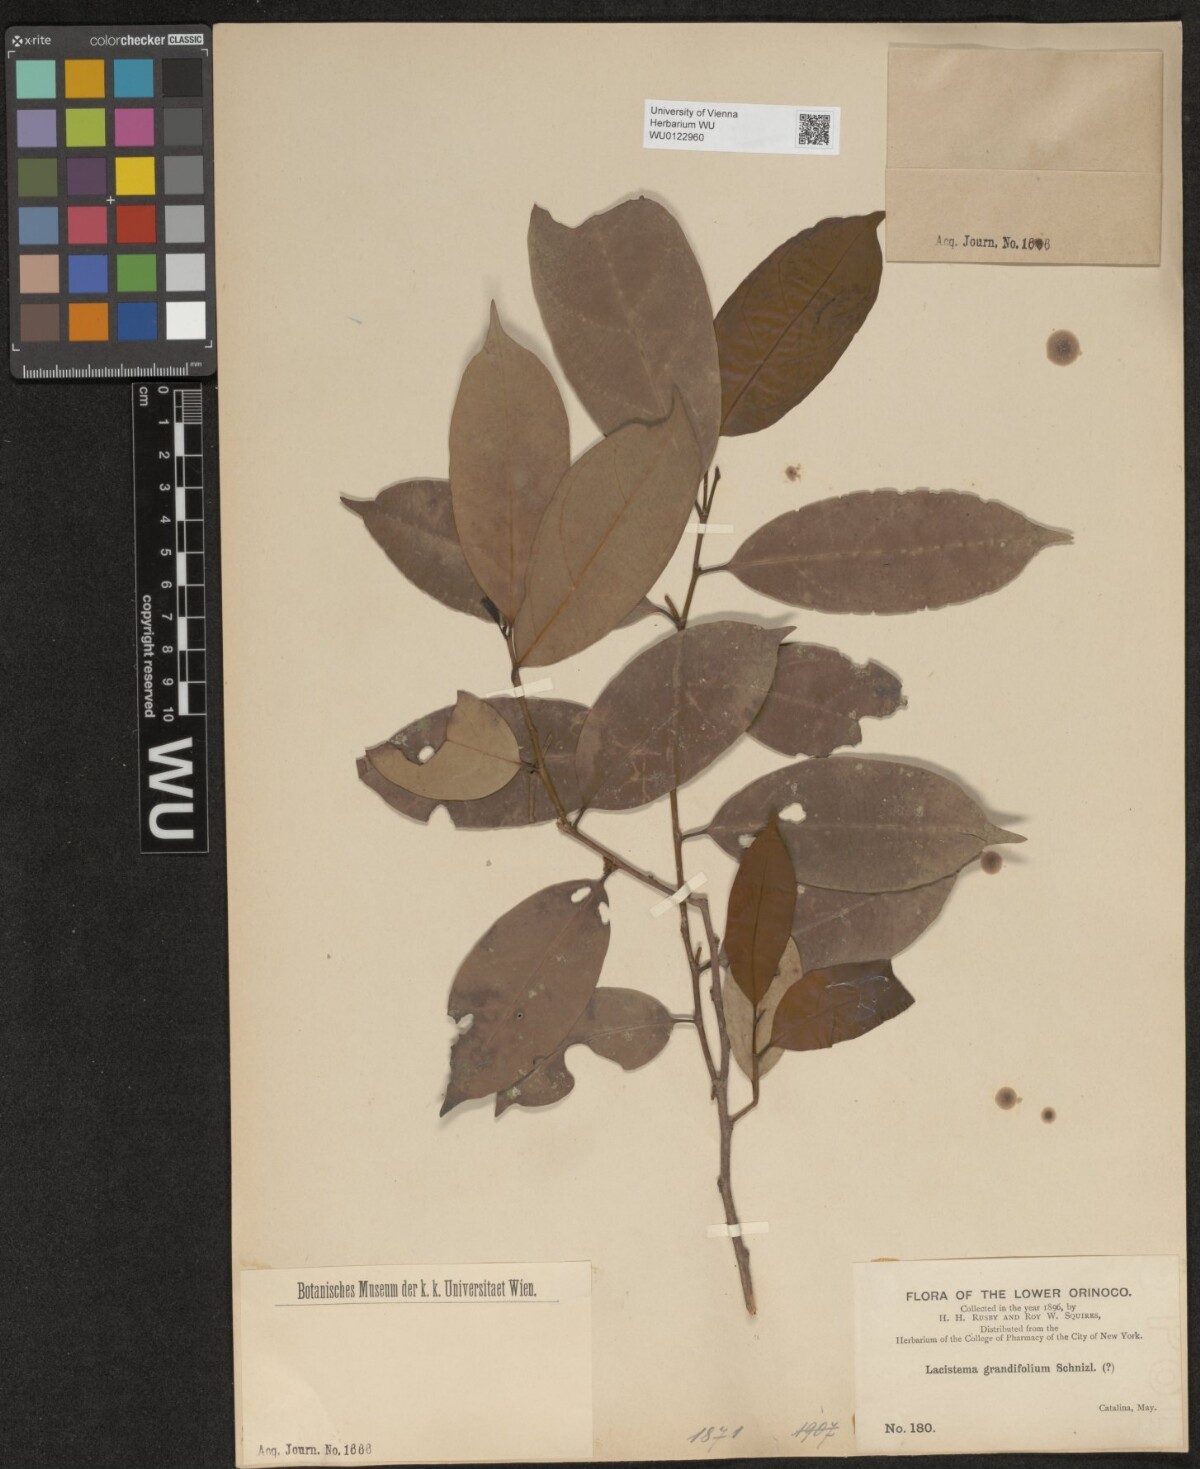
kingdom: Plantae
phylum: Tracheophyta
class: Magnoliopsida
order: Malpighiales
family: Lacistemataceae
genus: Lacistema
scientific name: Lacistema grandifolium
